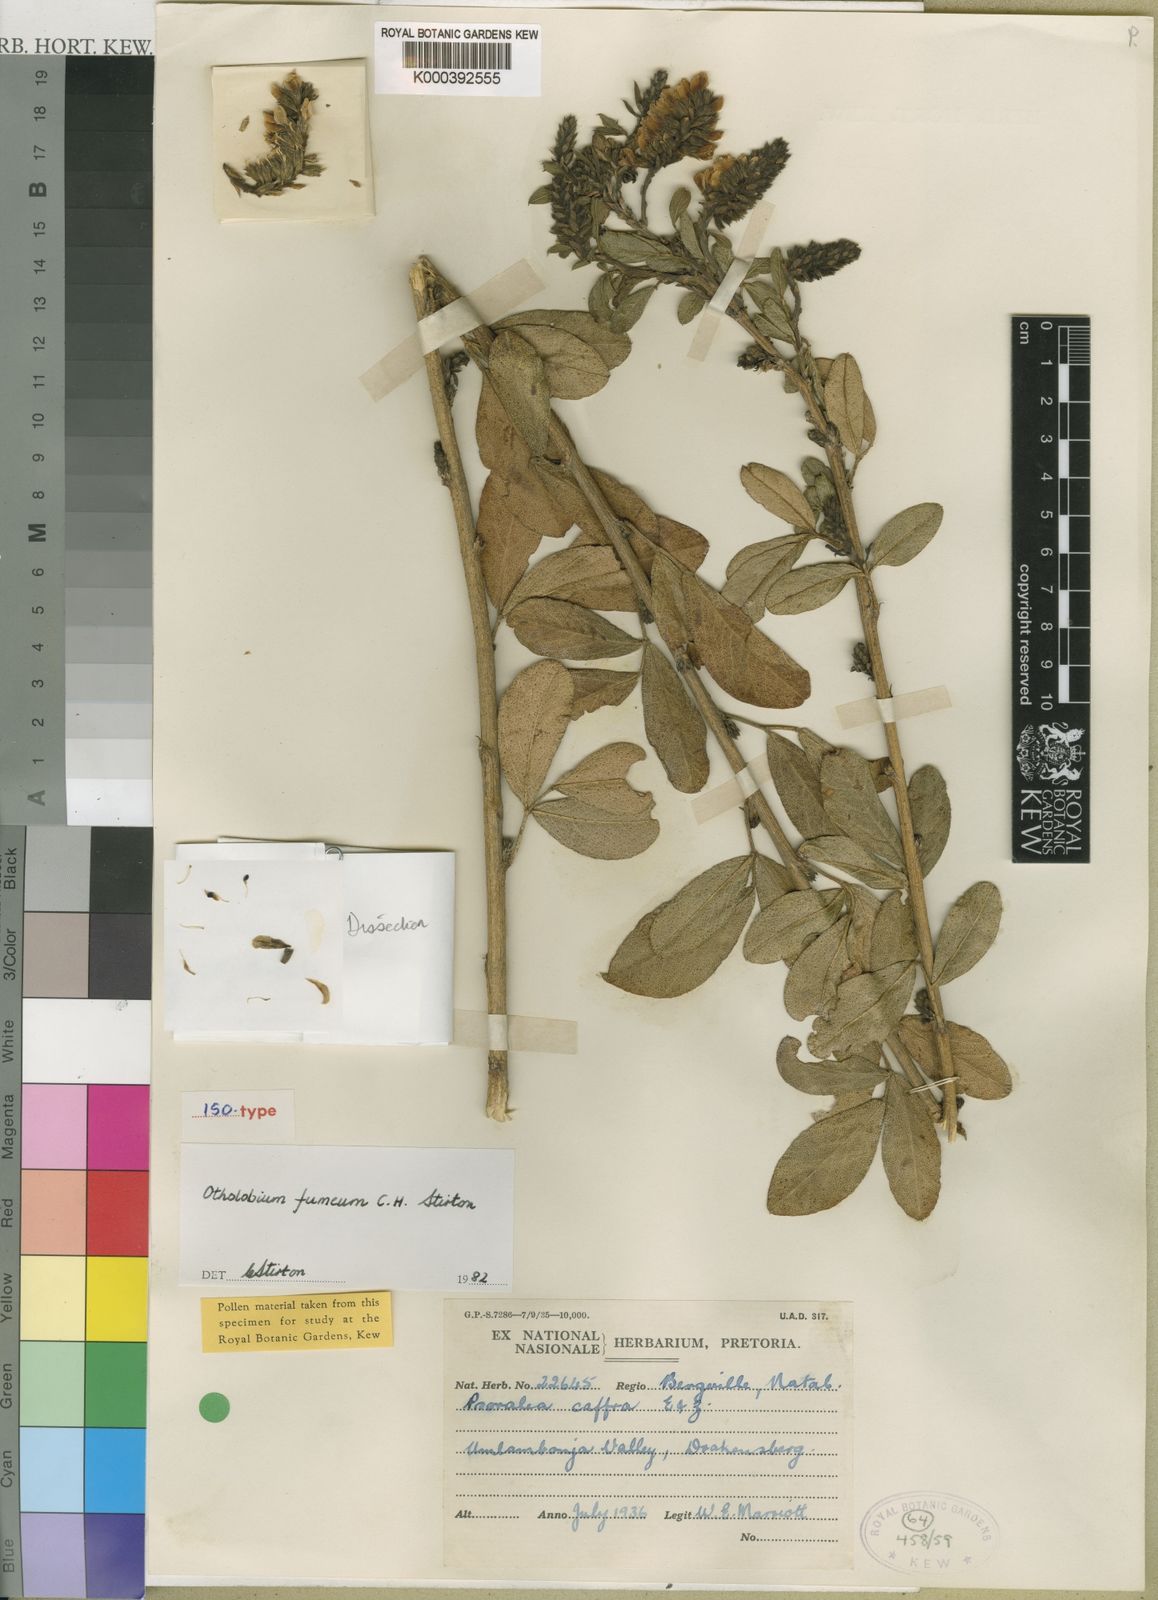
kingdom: Plantae
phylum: Tracheophyta
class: Magnoliopsida
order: Fabales
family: Fabaceae
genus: Otholobium
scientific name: Otholobium
